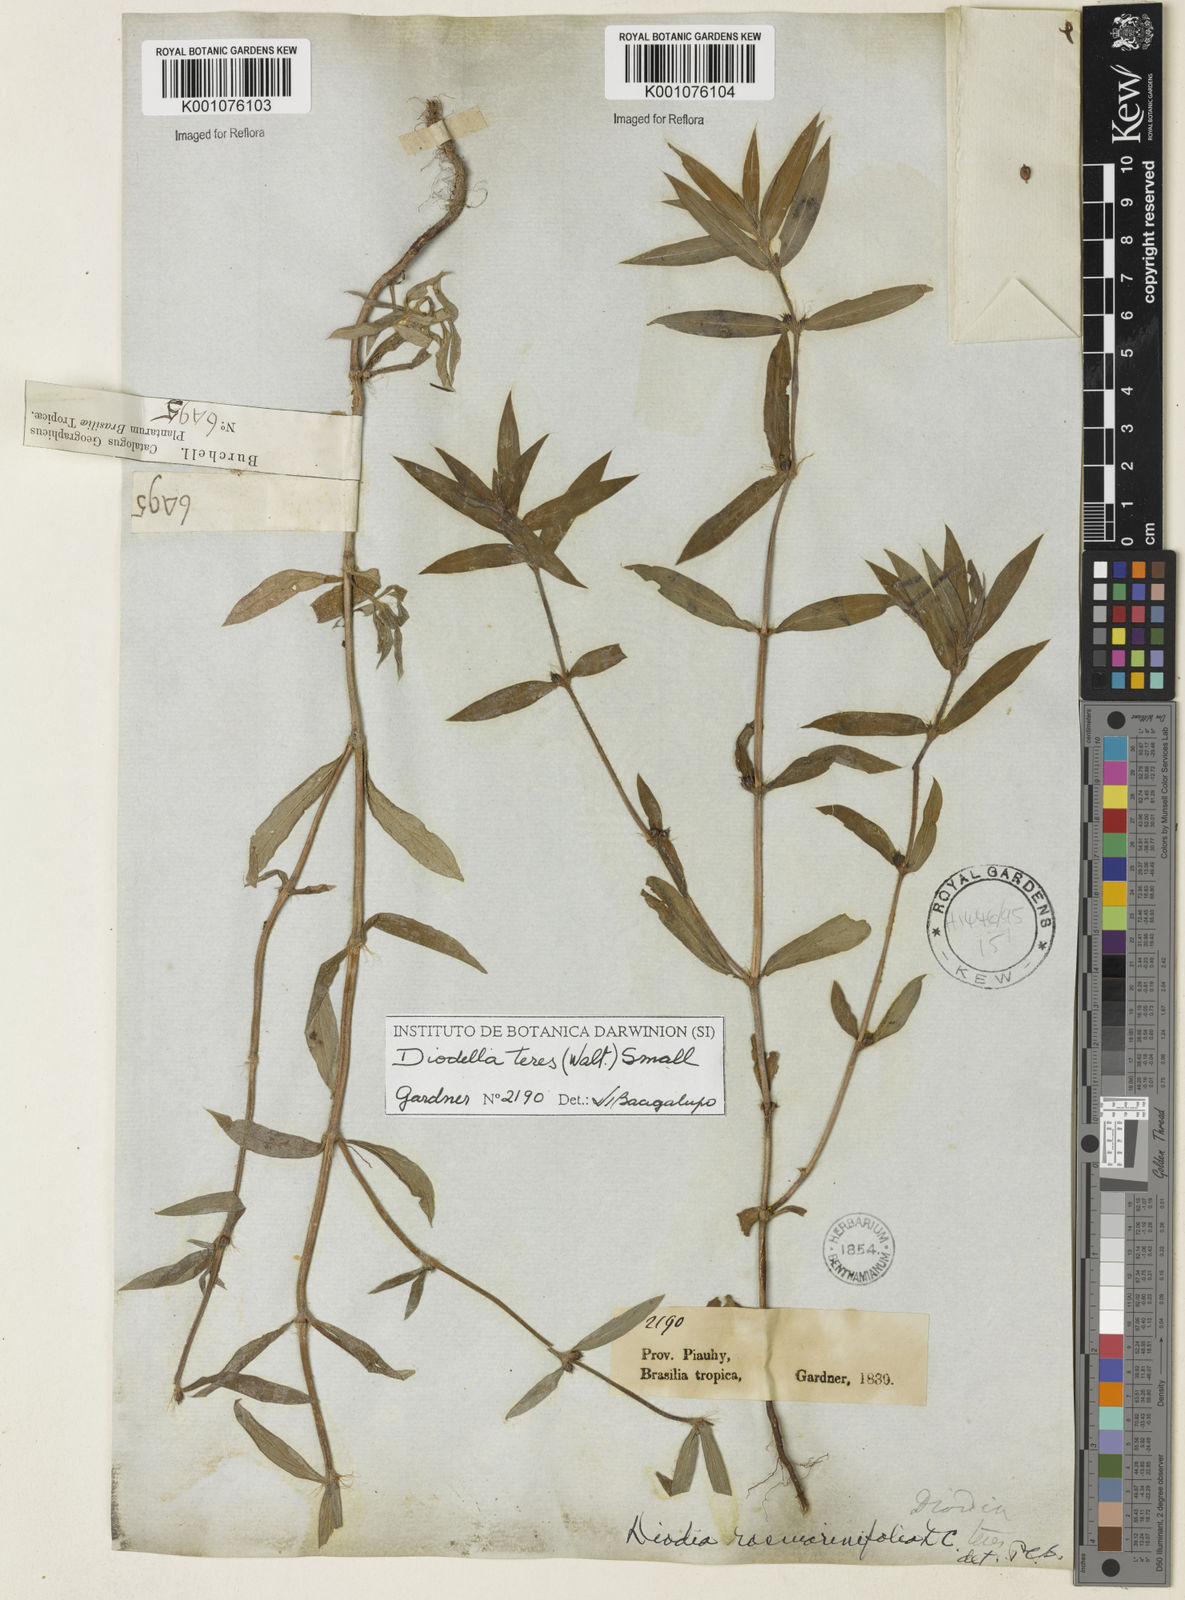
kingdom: Plantae
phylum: Tracheophyta
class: Magnoliopsida
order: Gentianales
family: Rubiaceae
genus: Hexasepalum
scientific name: Hexasepalum teres
